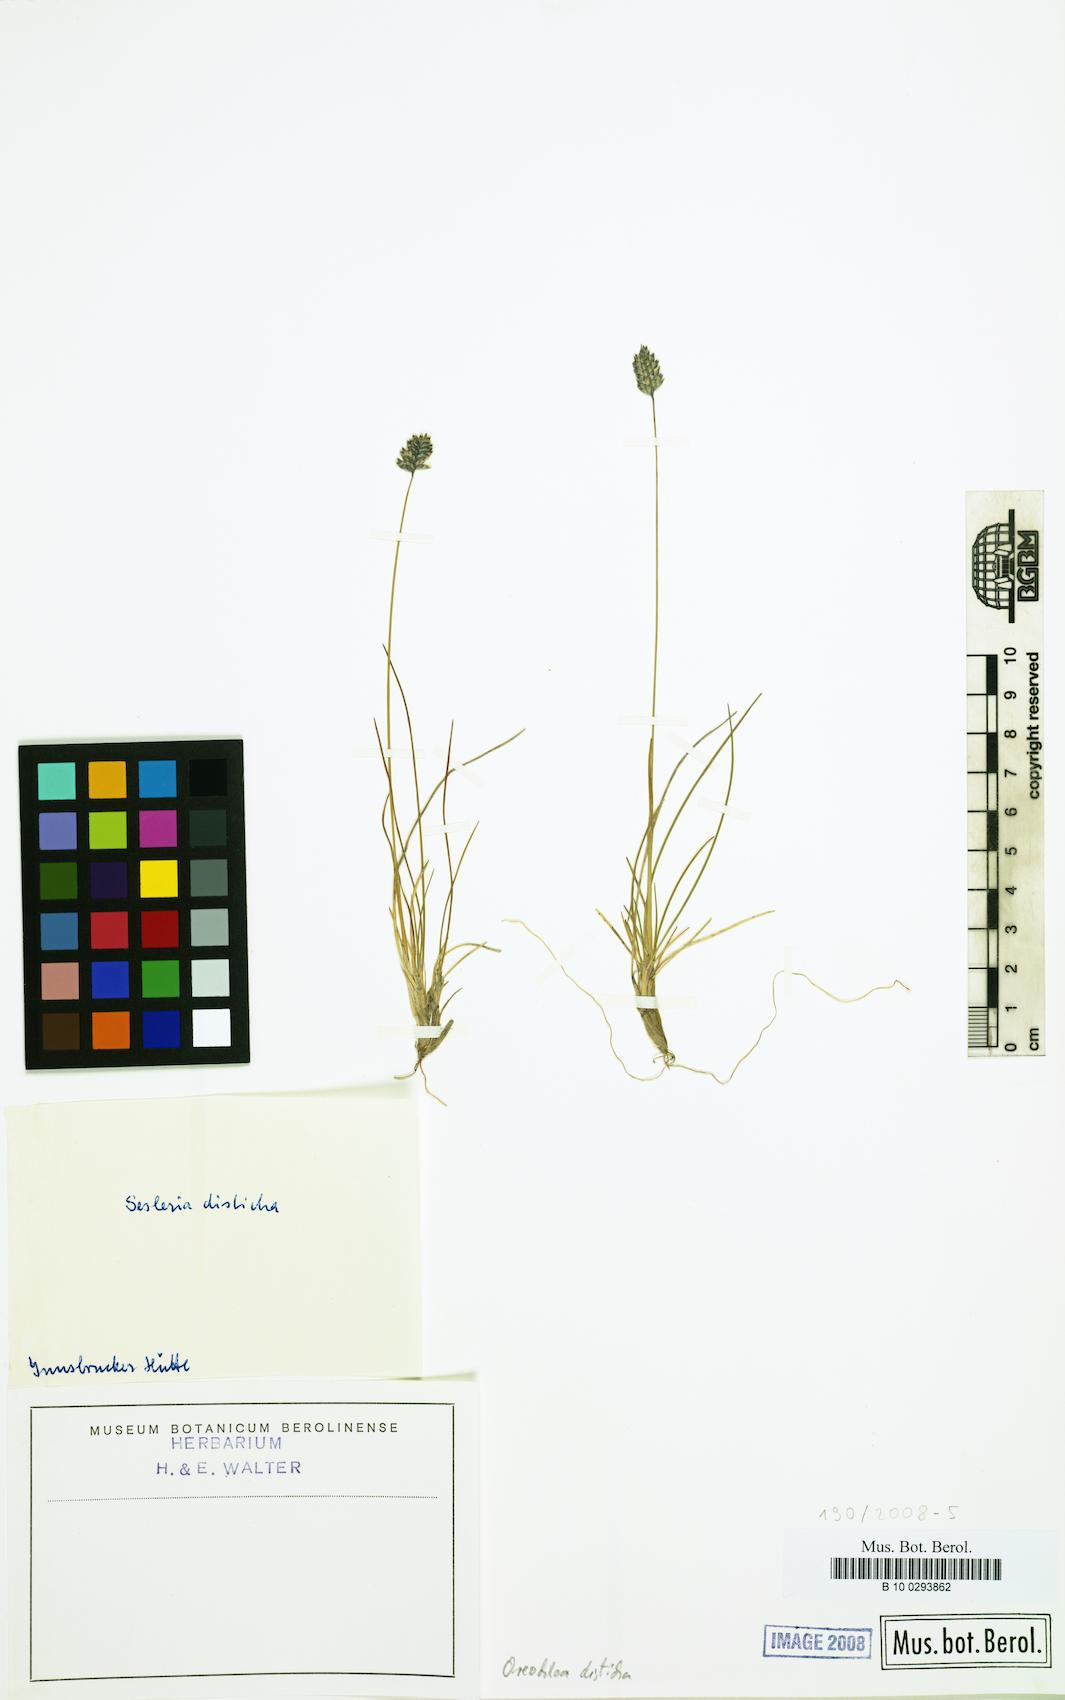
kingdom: Plantae
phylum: Tracheophyta
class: Liliopsida
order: Poales
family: Poaceae
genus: Oreochloa
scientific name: Oreochloa disticha
